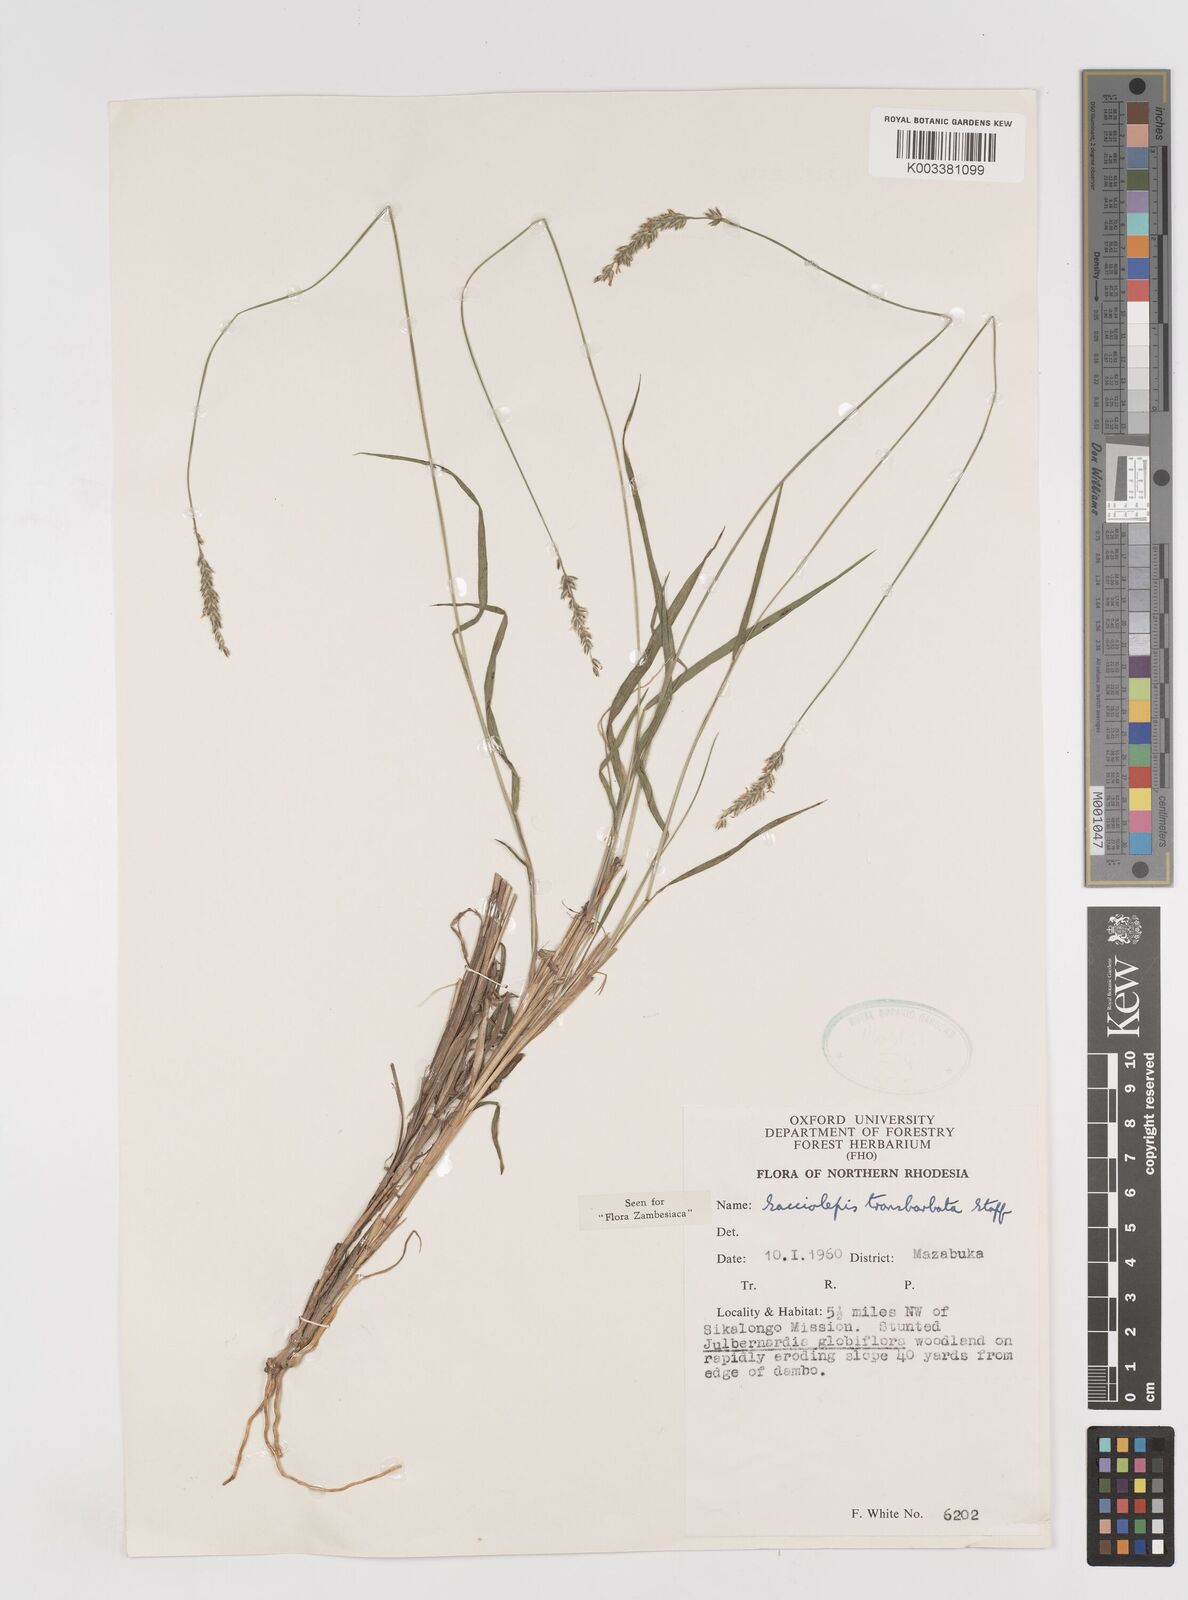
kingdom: Plantae
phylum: Tracheophyta
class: Liliopsida
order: Poales
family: Poaceae
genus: Sacciolepis
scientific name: Sacciolepis transbarbata
